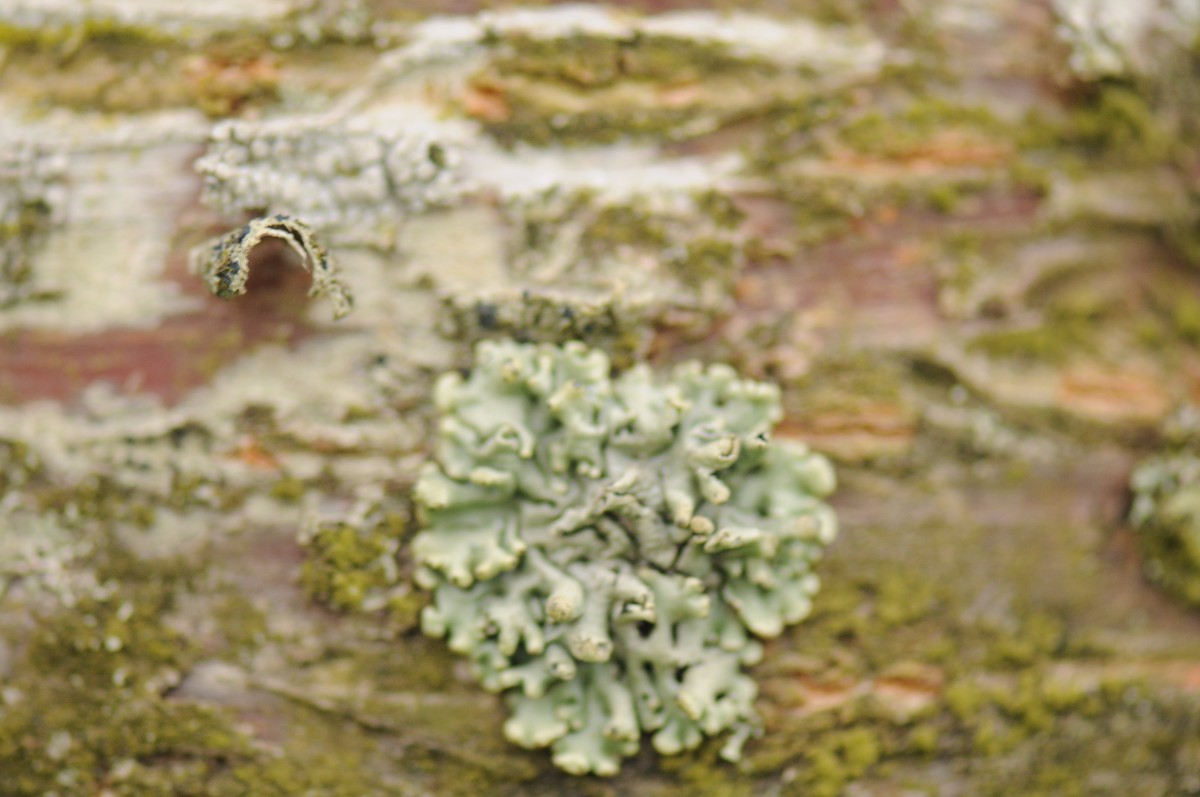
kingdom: Fungi
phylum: Ascomycota
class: Lecanoromycetes
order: Lecanorales
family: Parmeliaceae
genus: Hypogymnia
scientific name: Hypogymnia physodes
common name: almindelig kvistlav
